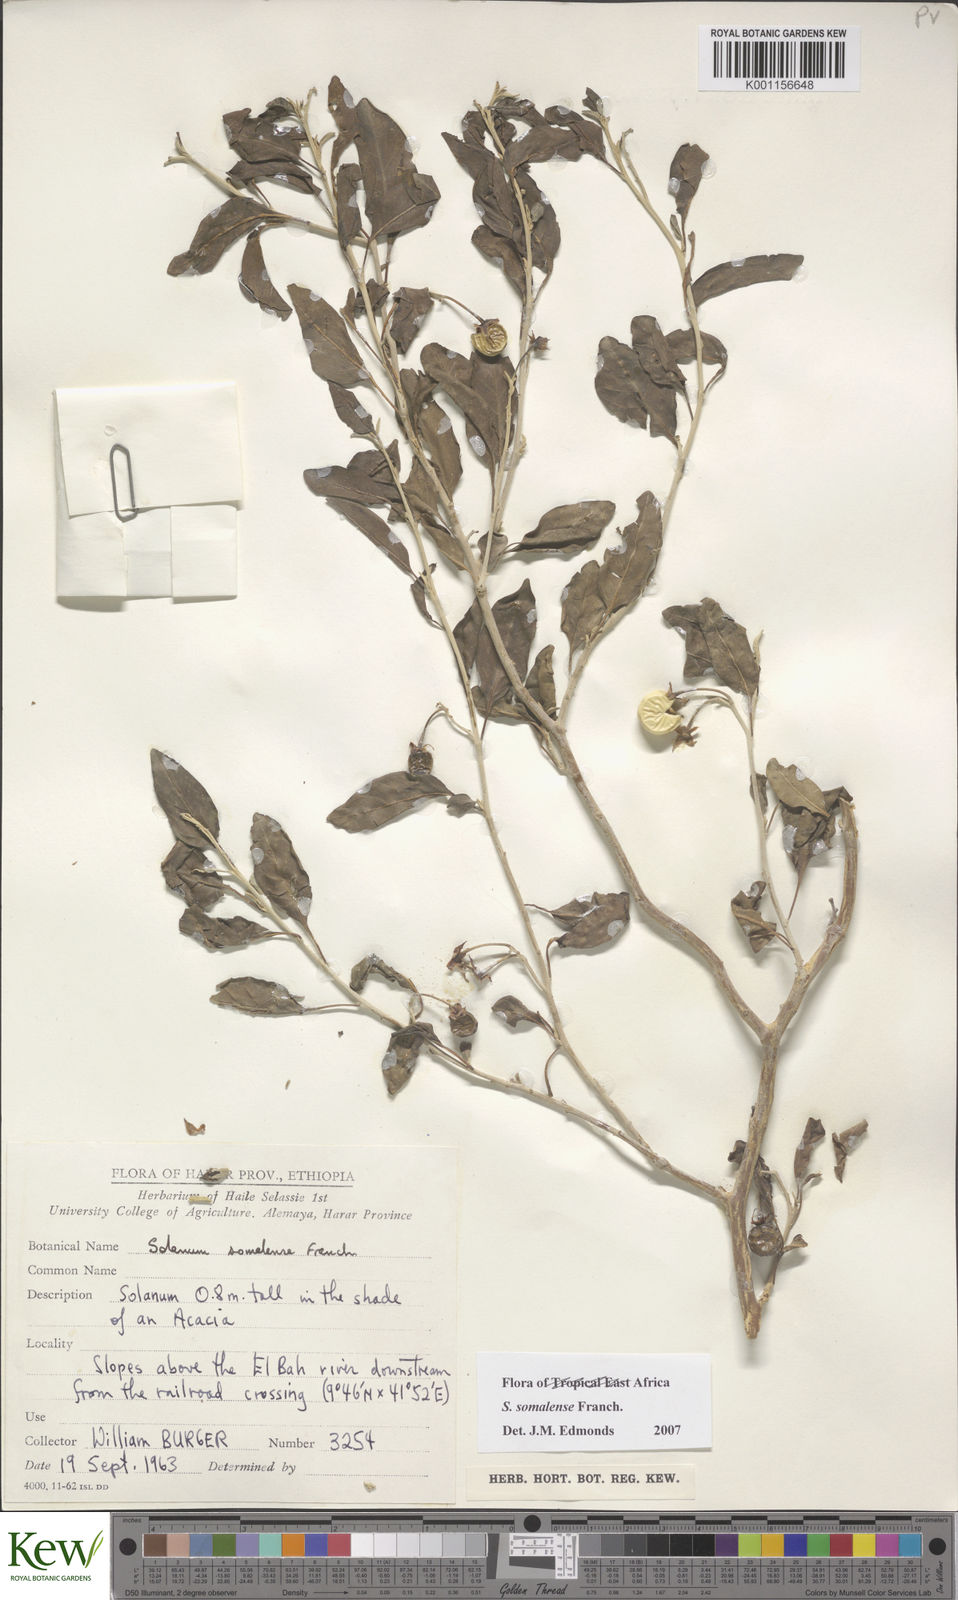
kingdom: Plantae
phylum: Tracheophyta
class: Magnoliopsida
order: Solanales
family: Solanaceae
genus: Solanum
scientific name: Solanum somalense
